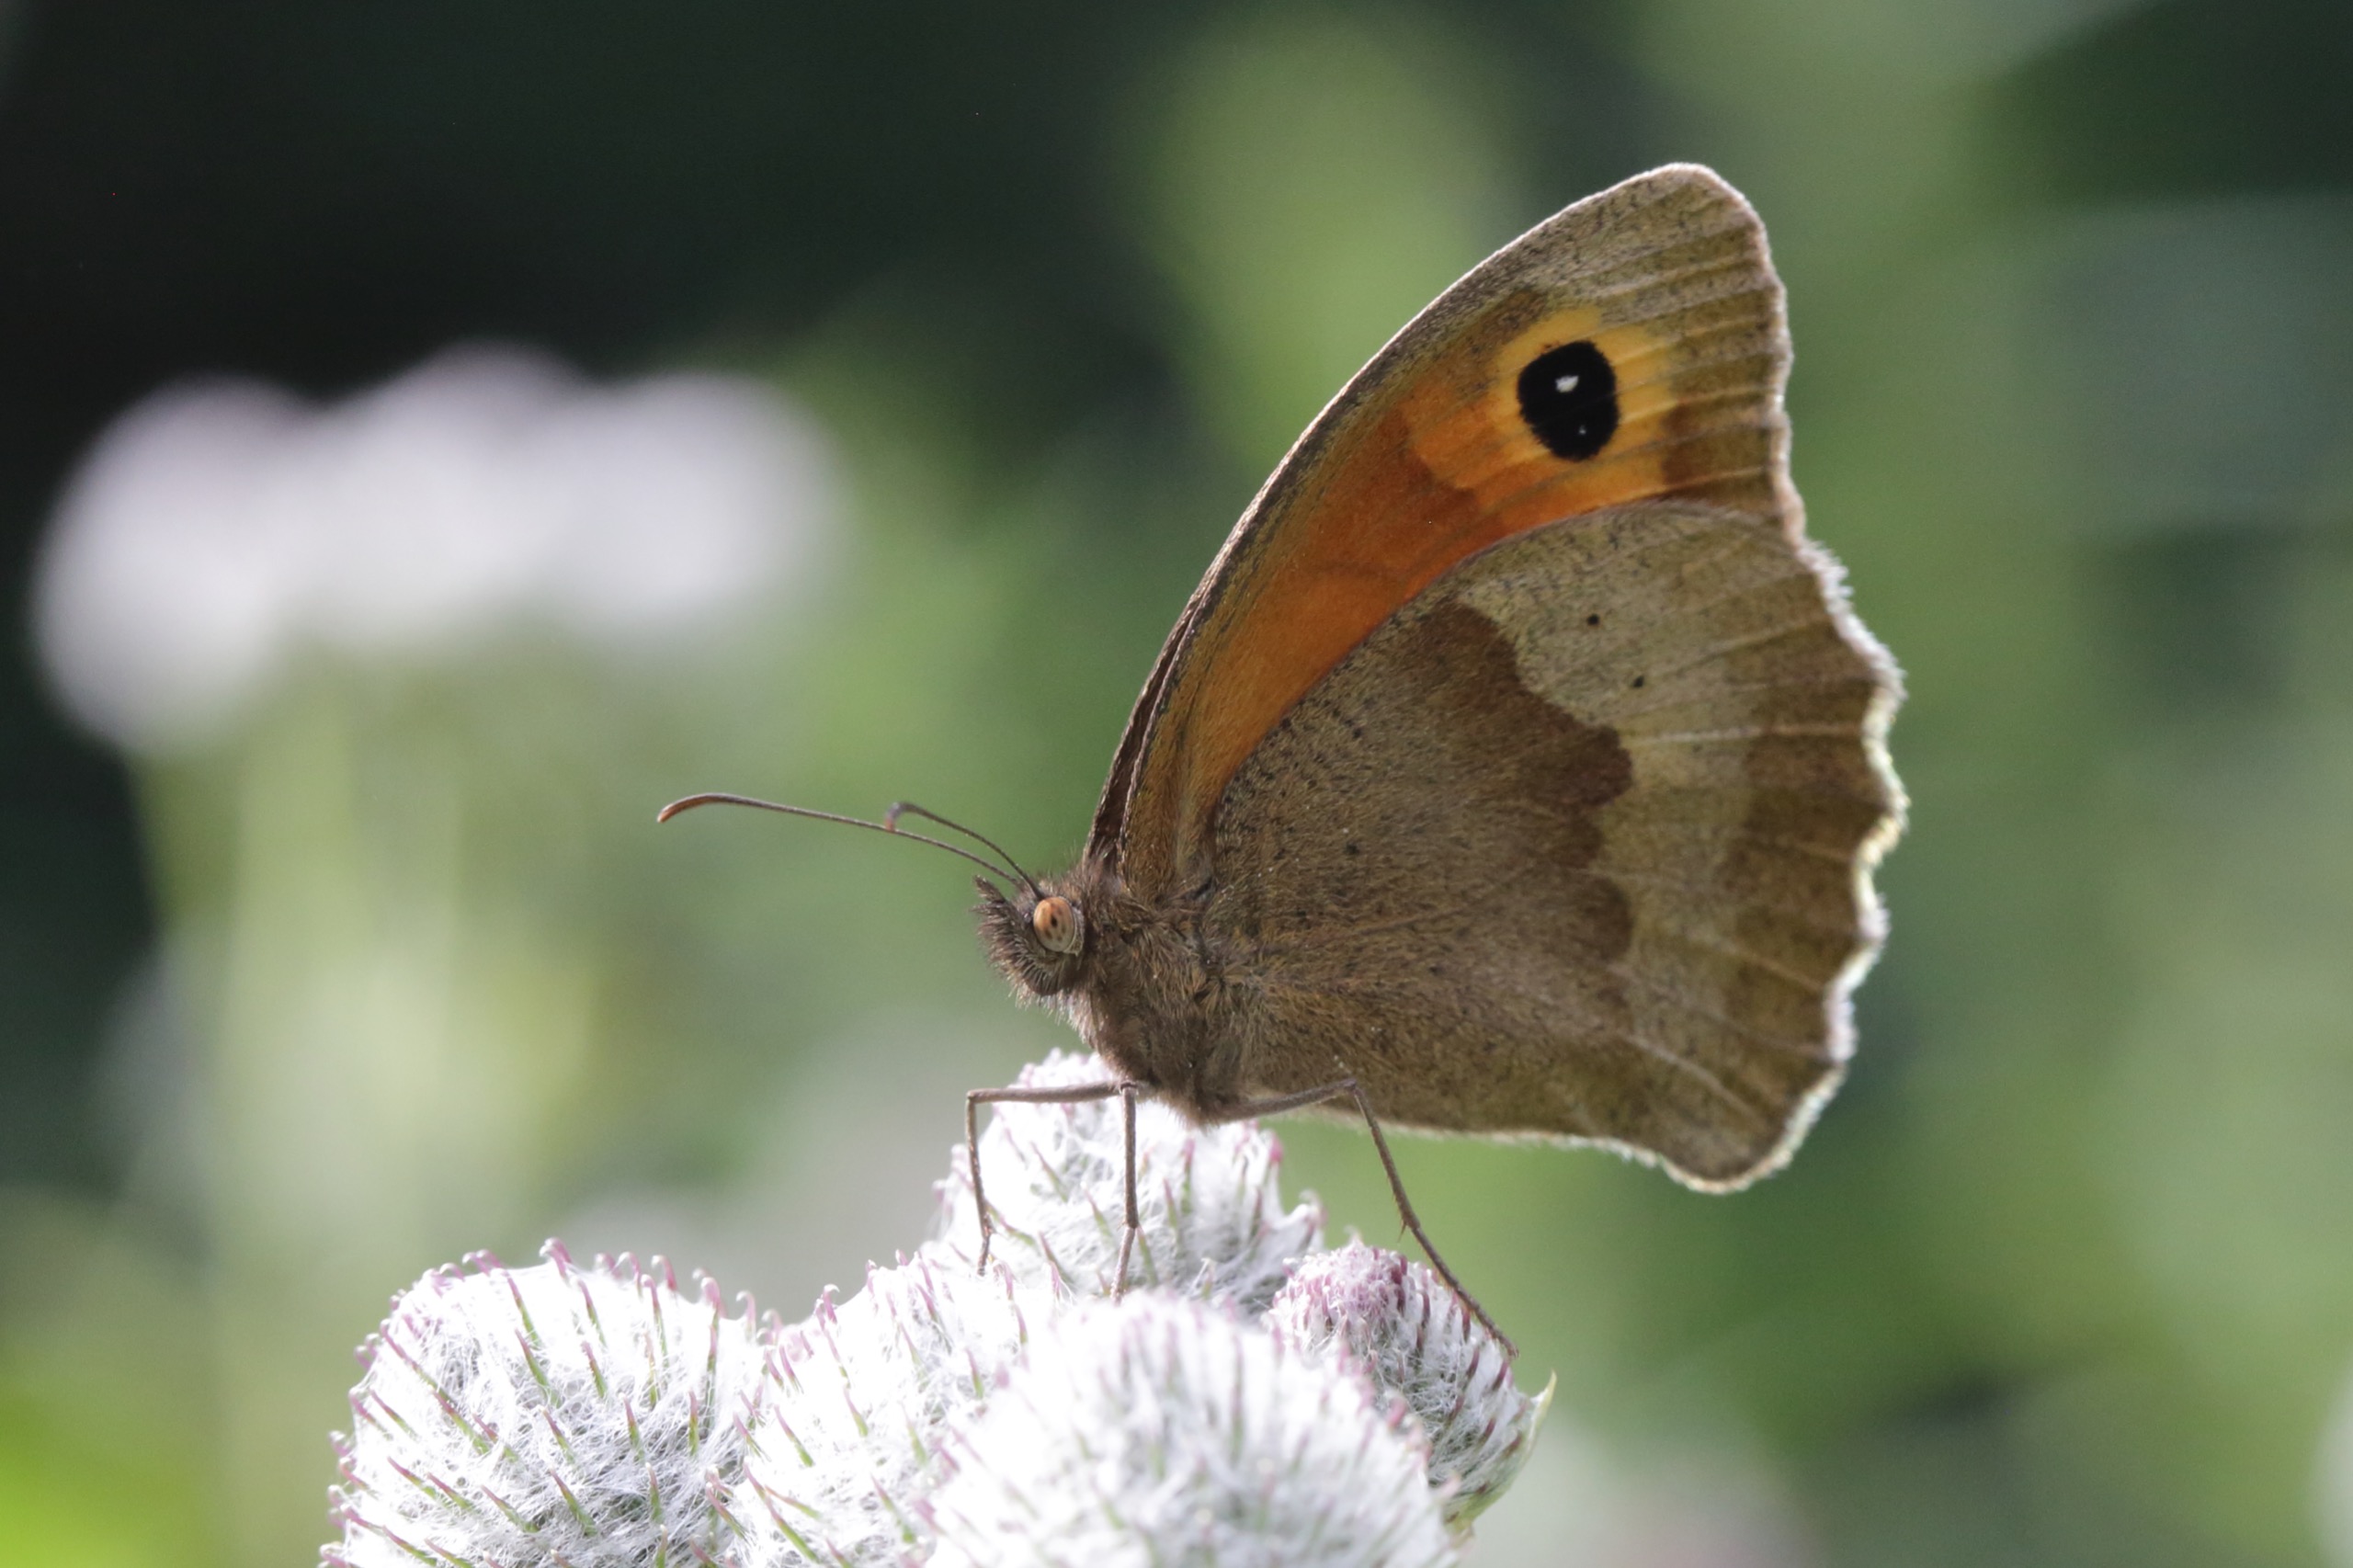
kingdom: Animalia
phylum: Arthropoda
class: Insecta
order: Lepidoptera
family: Nymphalidae
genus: Maniola
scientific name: Maniola jurtina
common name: Græsrandøje
